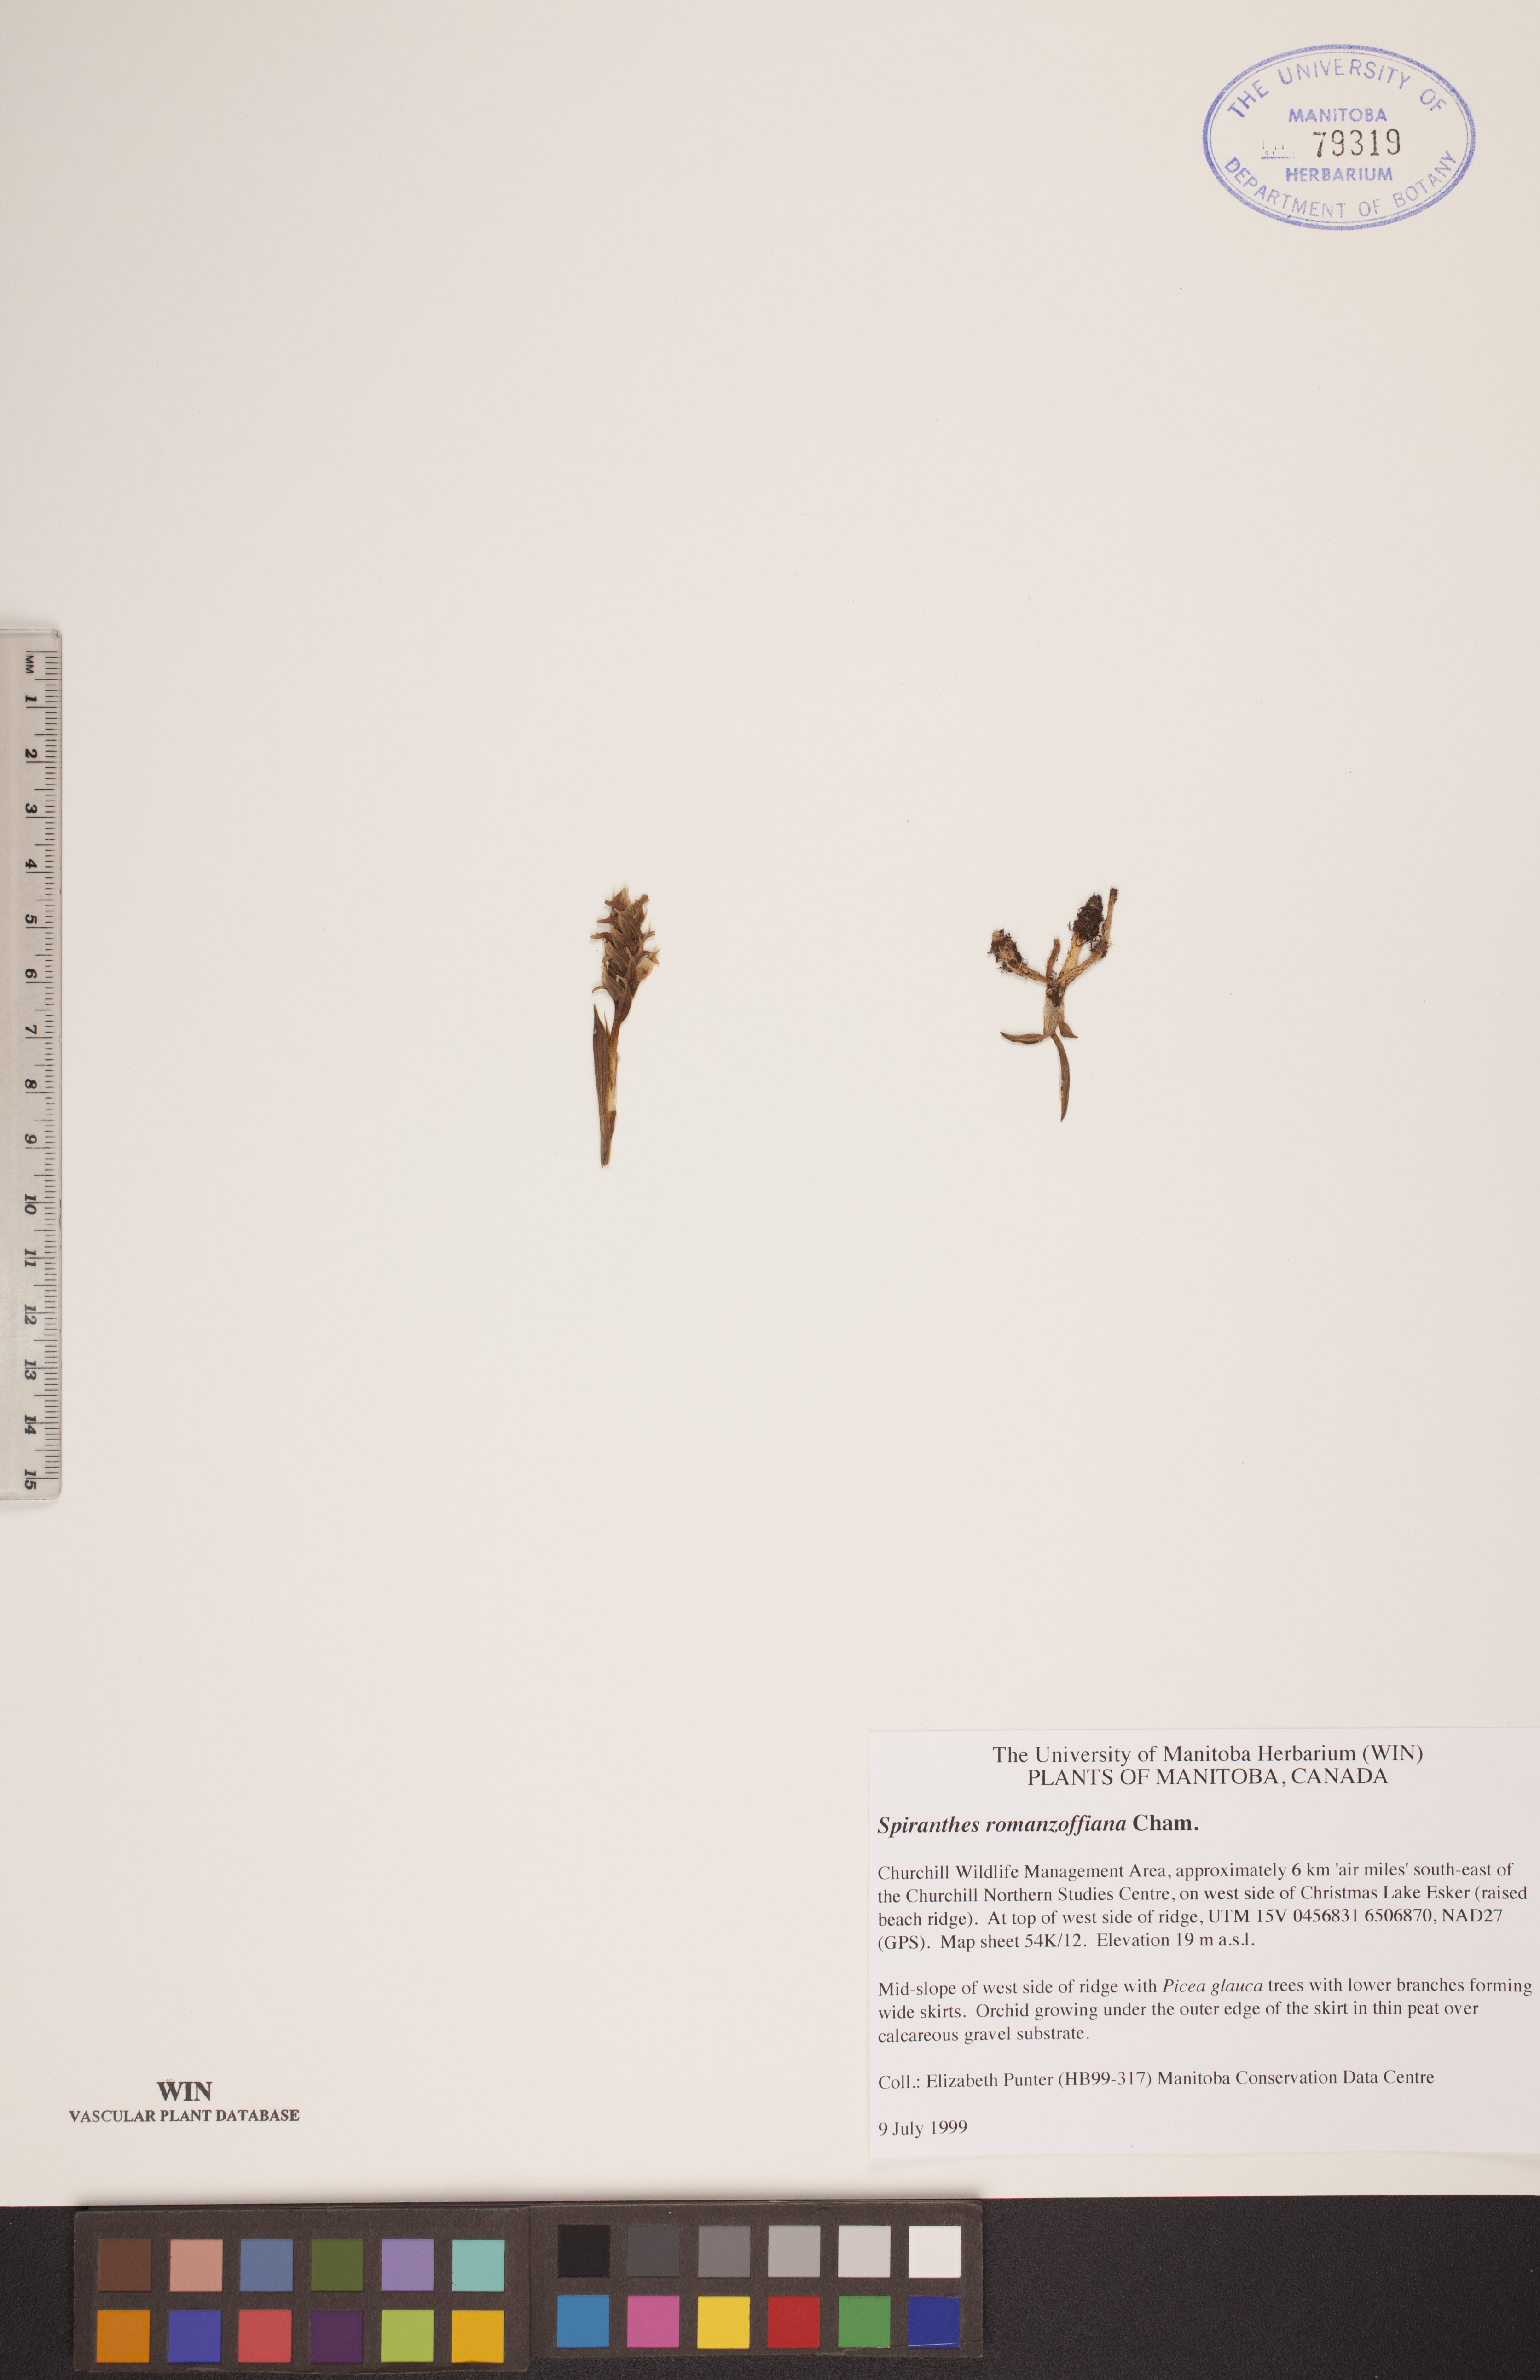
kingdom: Plantae
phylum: Tracheophyta
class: Liliopsida
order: Asparagales
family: Orchidaceae
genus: Spiranthes
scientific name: Spiranthes romanzoffiana
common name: Irish lady's-tresses
